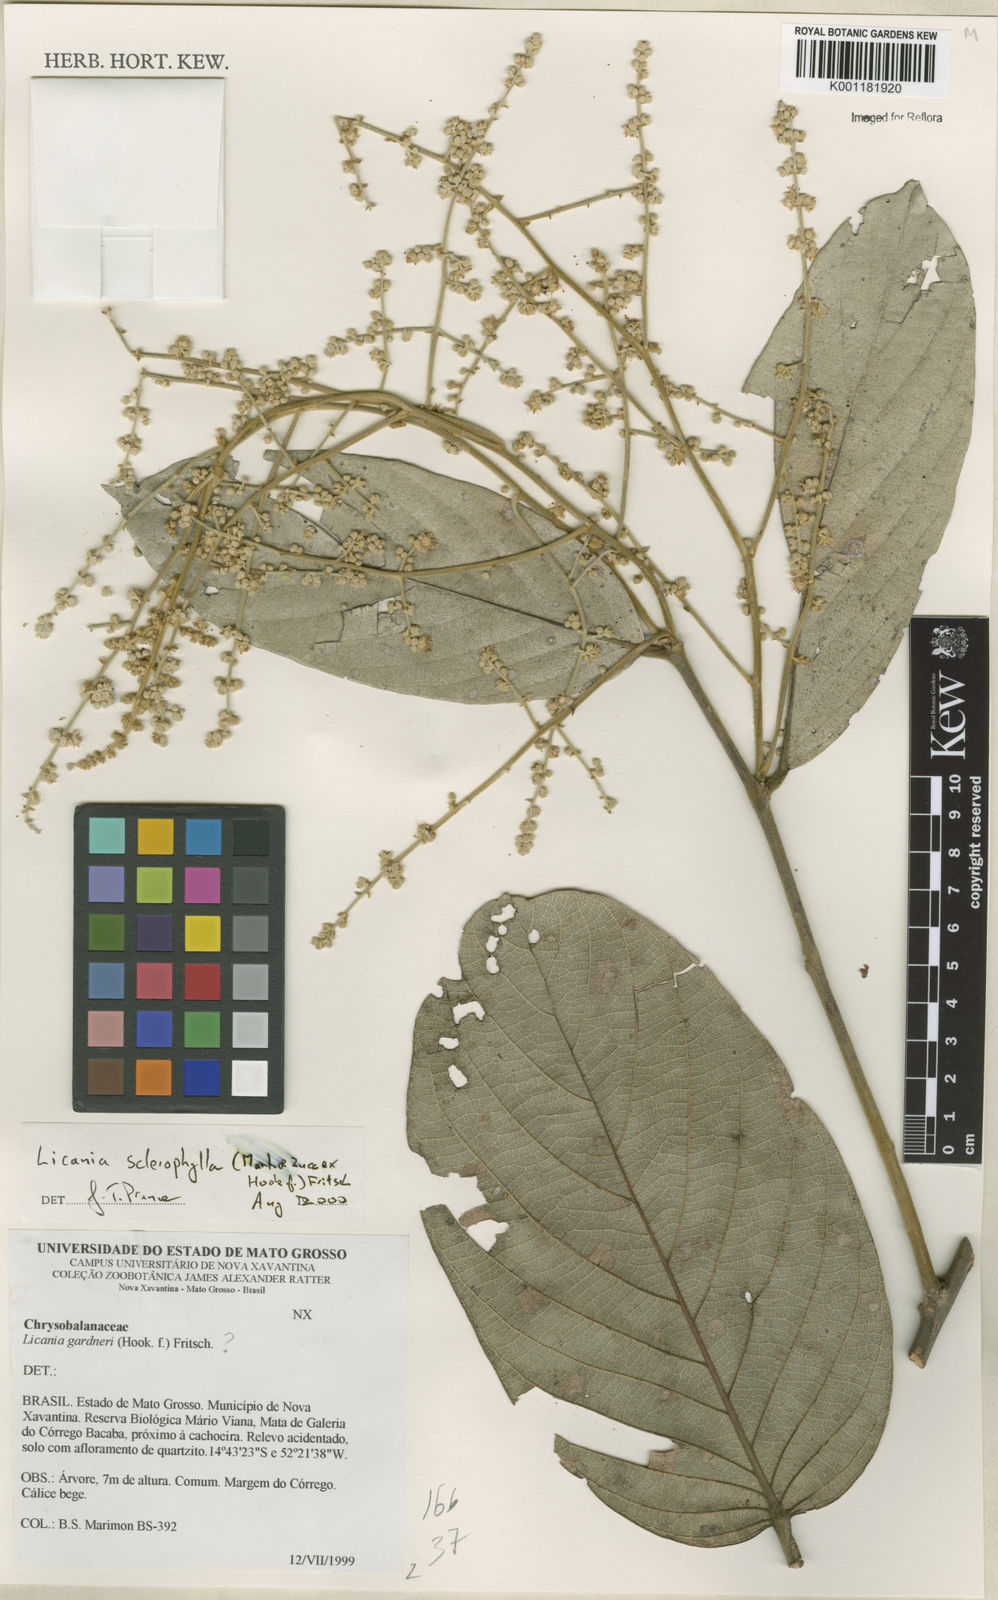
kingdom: Plantae
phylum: Tracheophyta
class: Magnoliopsida
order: Malpighiales
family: Chrysobalanaceae
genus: Leptobalanus
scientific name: Leptobalanus sclerophyllus
